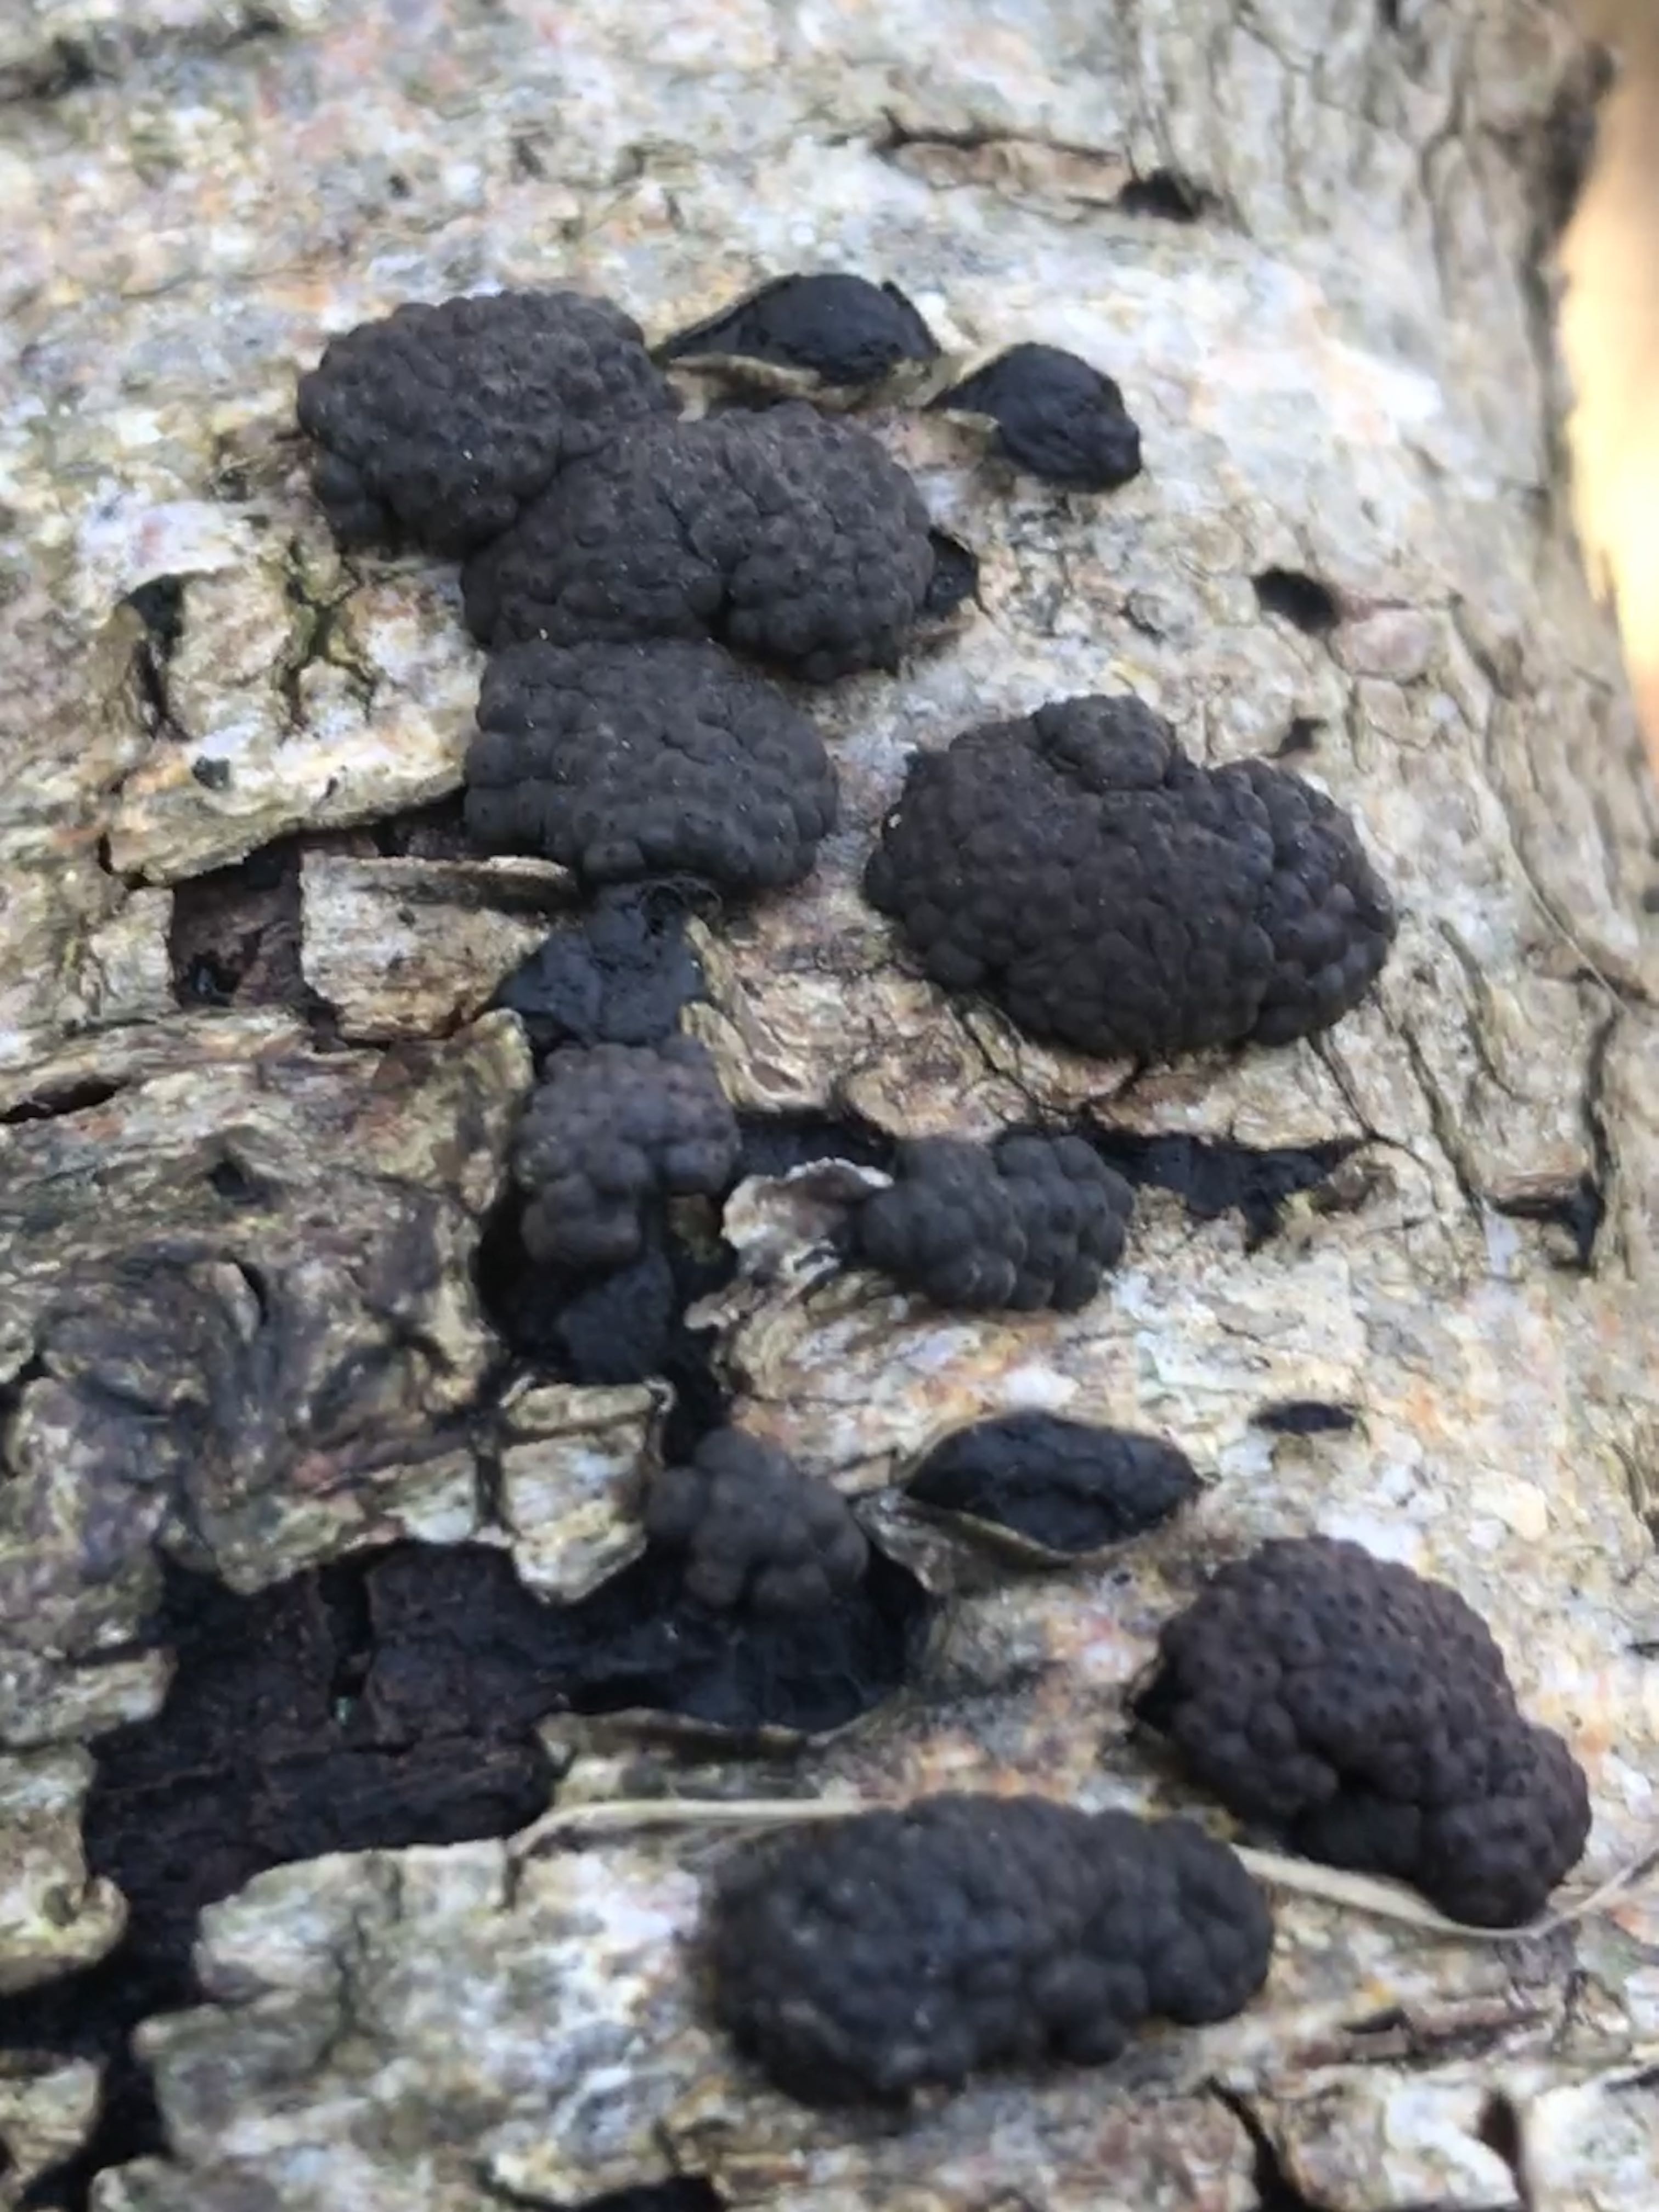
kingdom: Fungi
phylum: Ascomycota
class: Sordariomycetes
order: Xylariales
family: Hypoxylaceae
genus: Jackrogersella
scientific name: Jackrogersella multiformis
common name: foranderlig kulbær
